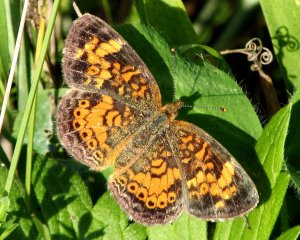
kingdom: Animalia
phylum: Arthropoda
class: Insecta
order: Lepidoptera
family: Nymphalidae
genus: Phyciodes
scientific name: Phyciodes tharos
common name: Pearl Crescent
